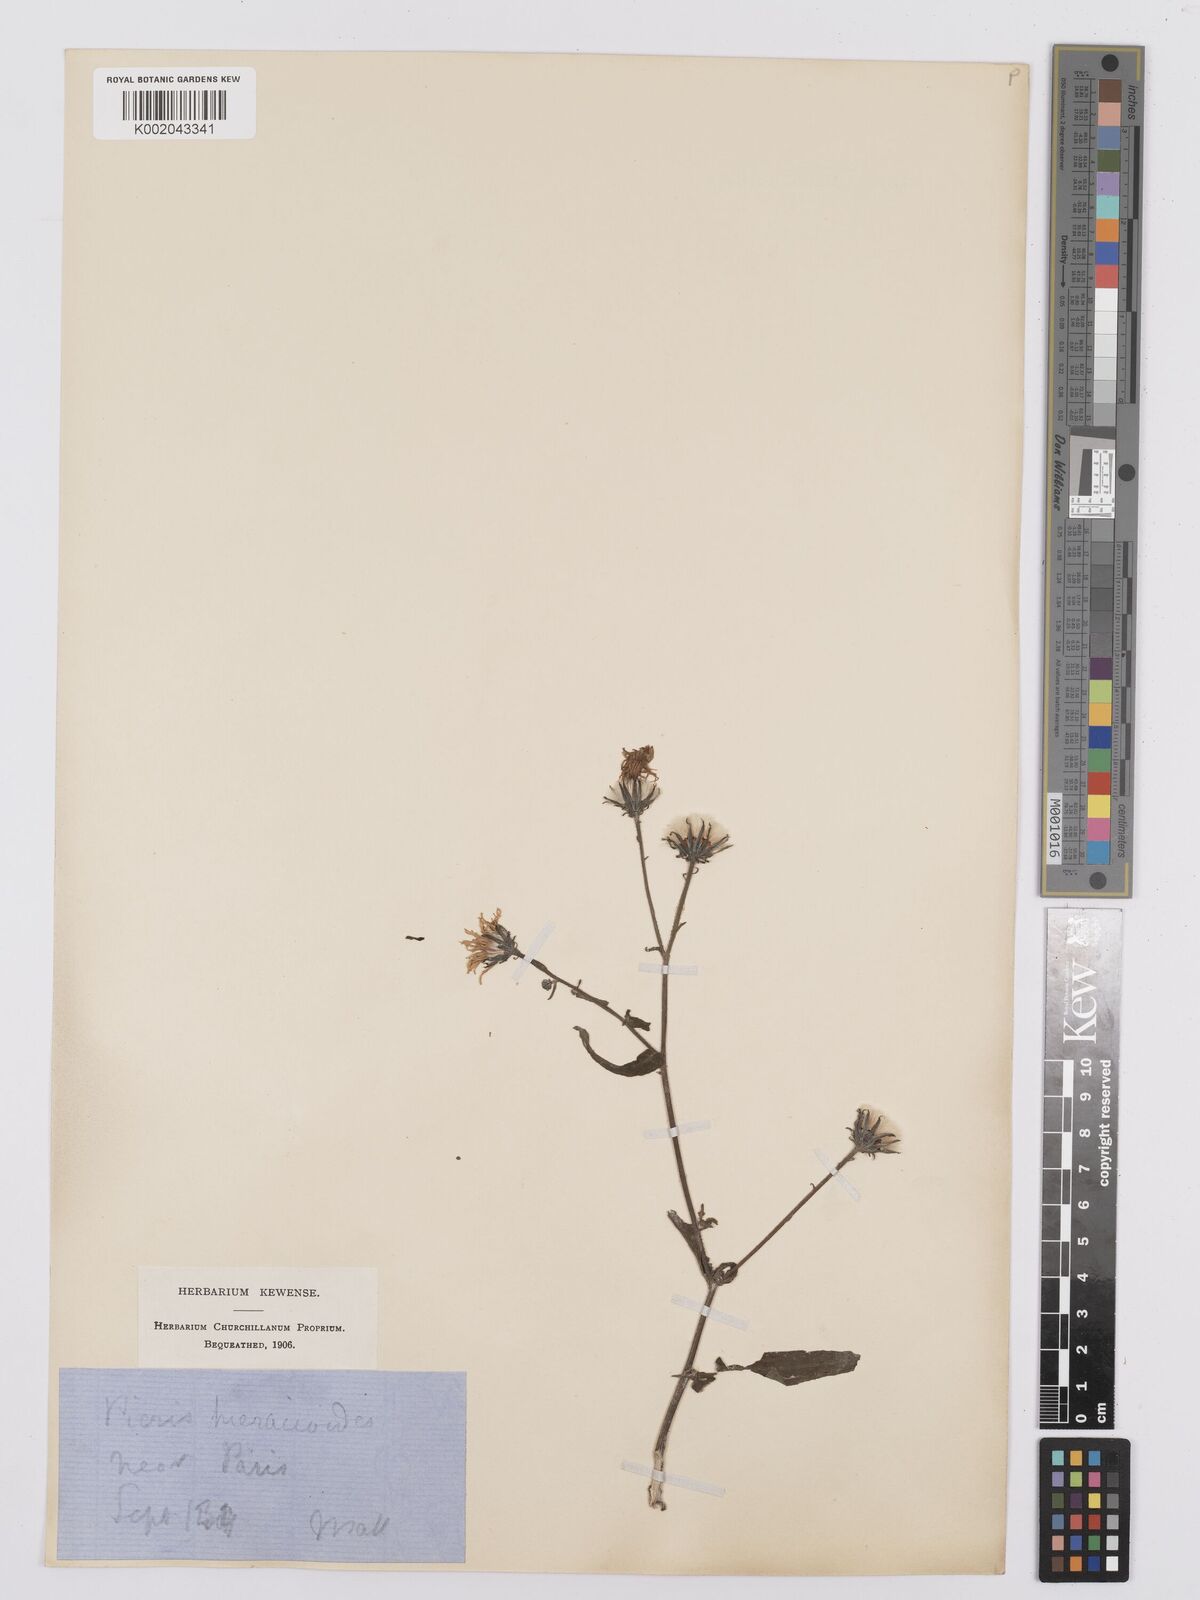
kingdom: Plantae
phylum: Tracheophyta
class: Magnoliopsida
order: Asterales
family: Asteraceae
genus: Picris
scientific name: Picris hieracioides
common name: Hawkweed oxtongue
